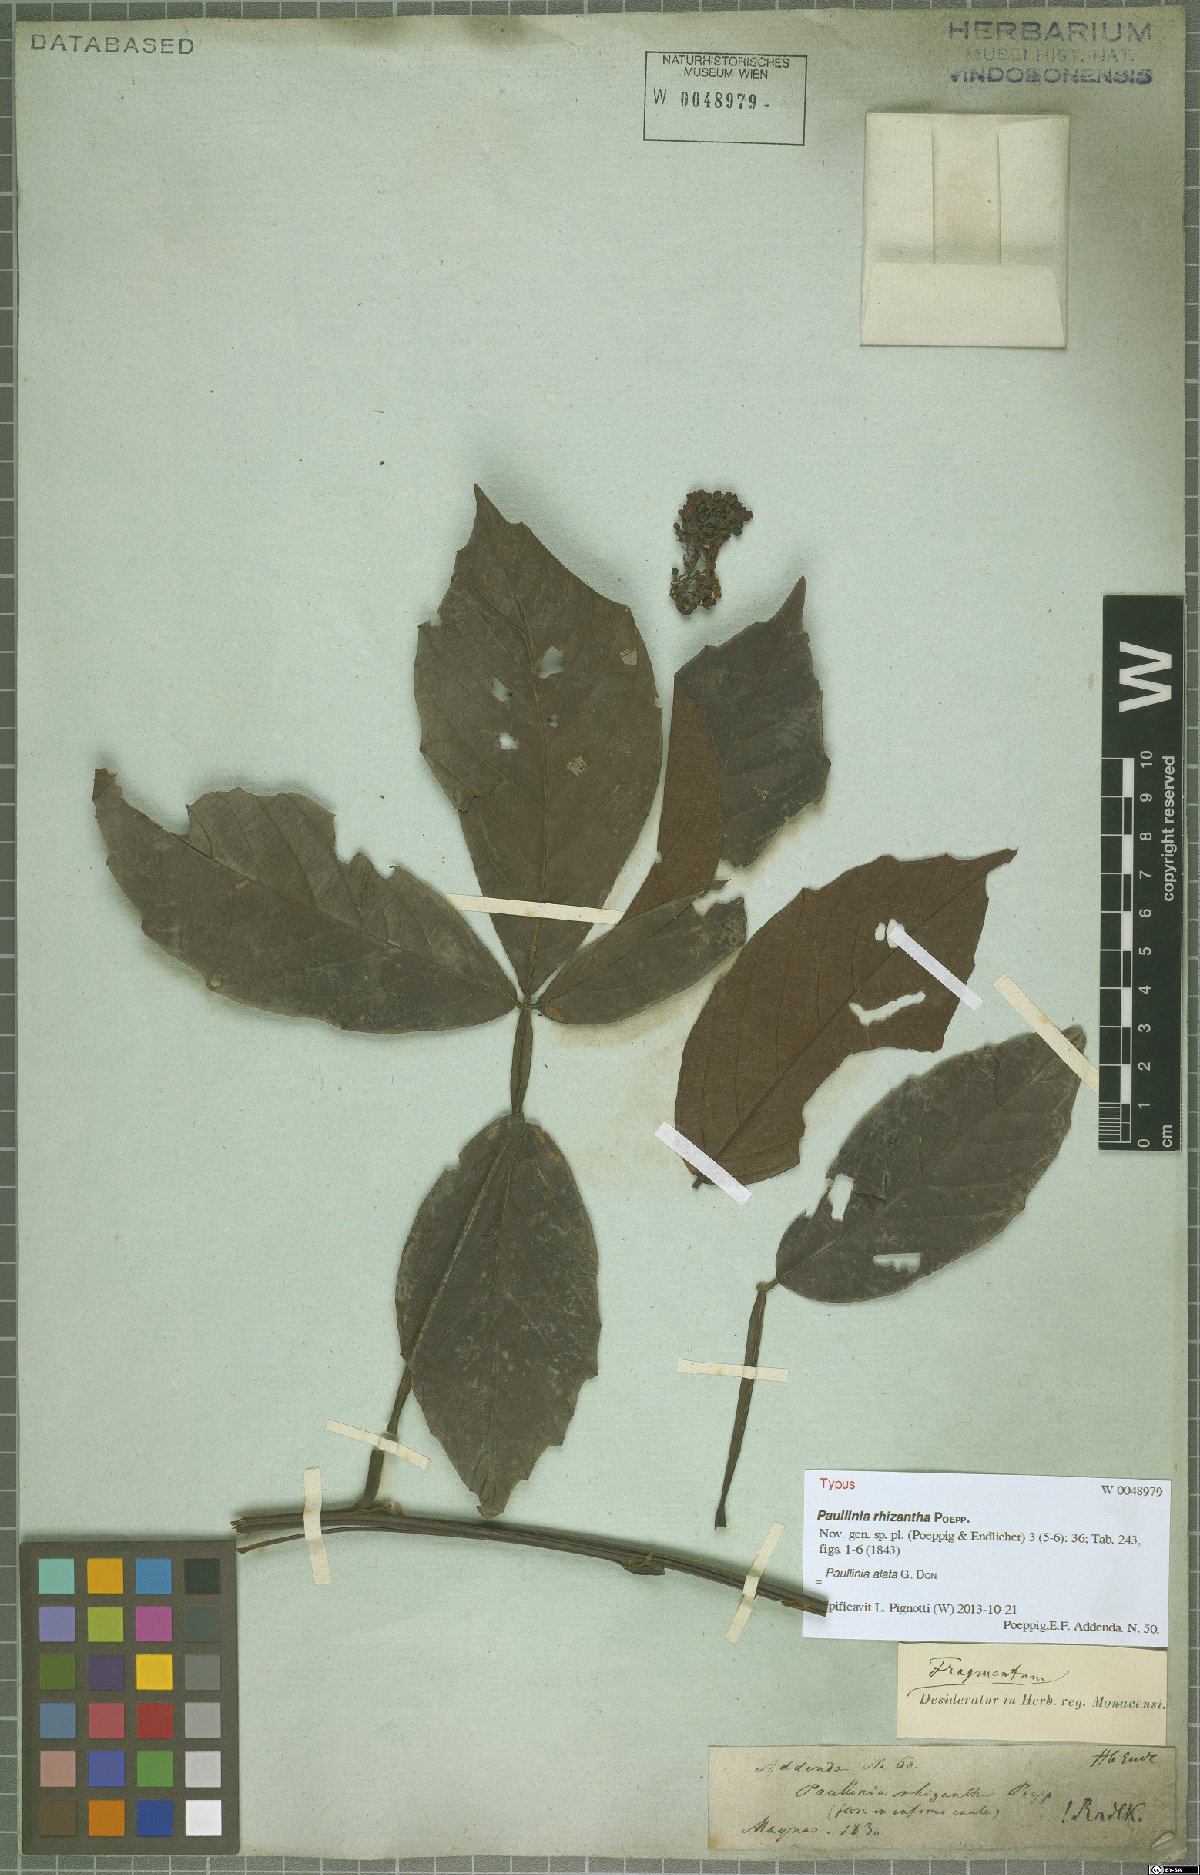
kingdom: Plantae
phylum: Tracheophyta
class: Magnoliopsida
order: Sapindales
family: Sapindaceae
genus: Paullinia
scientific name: Paullinia alata
